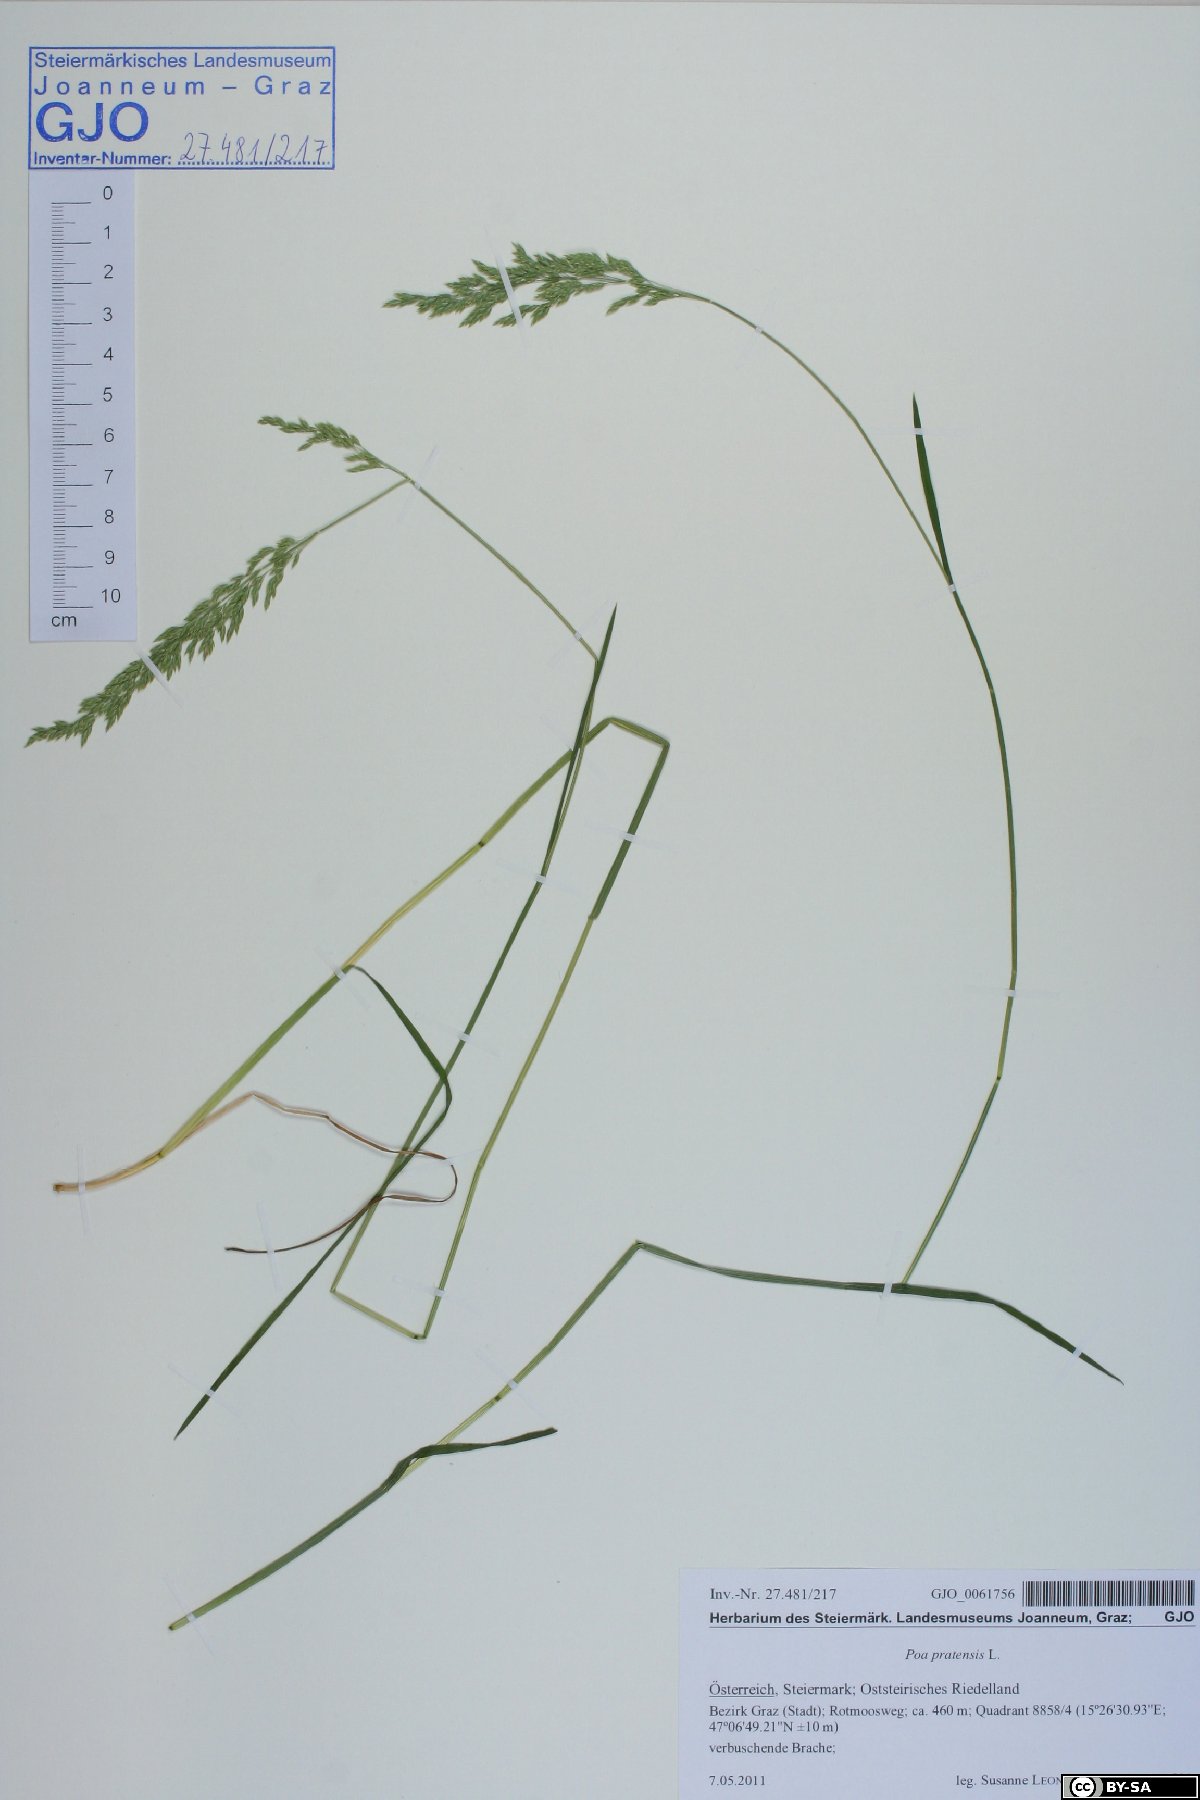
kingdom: Plantae
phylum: Tracheophyta
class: Liliopsida
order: Poales
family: Poaceae
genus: Poa
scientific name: Poa pratensis
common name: Kentucky bluegrass
